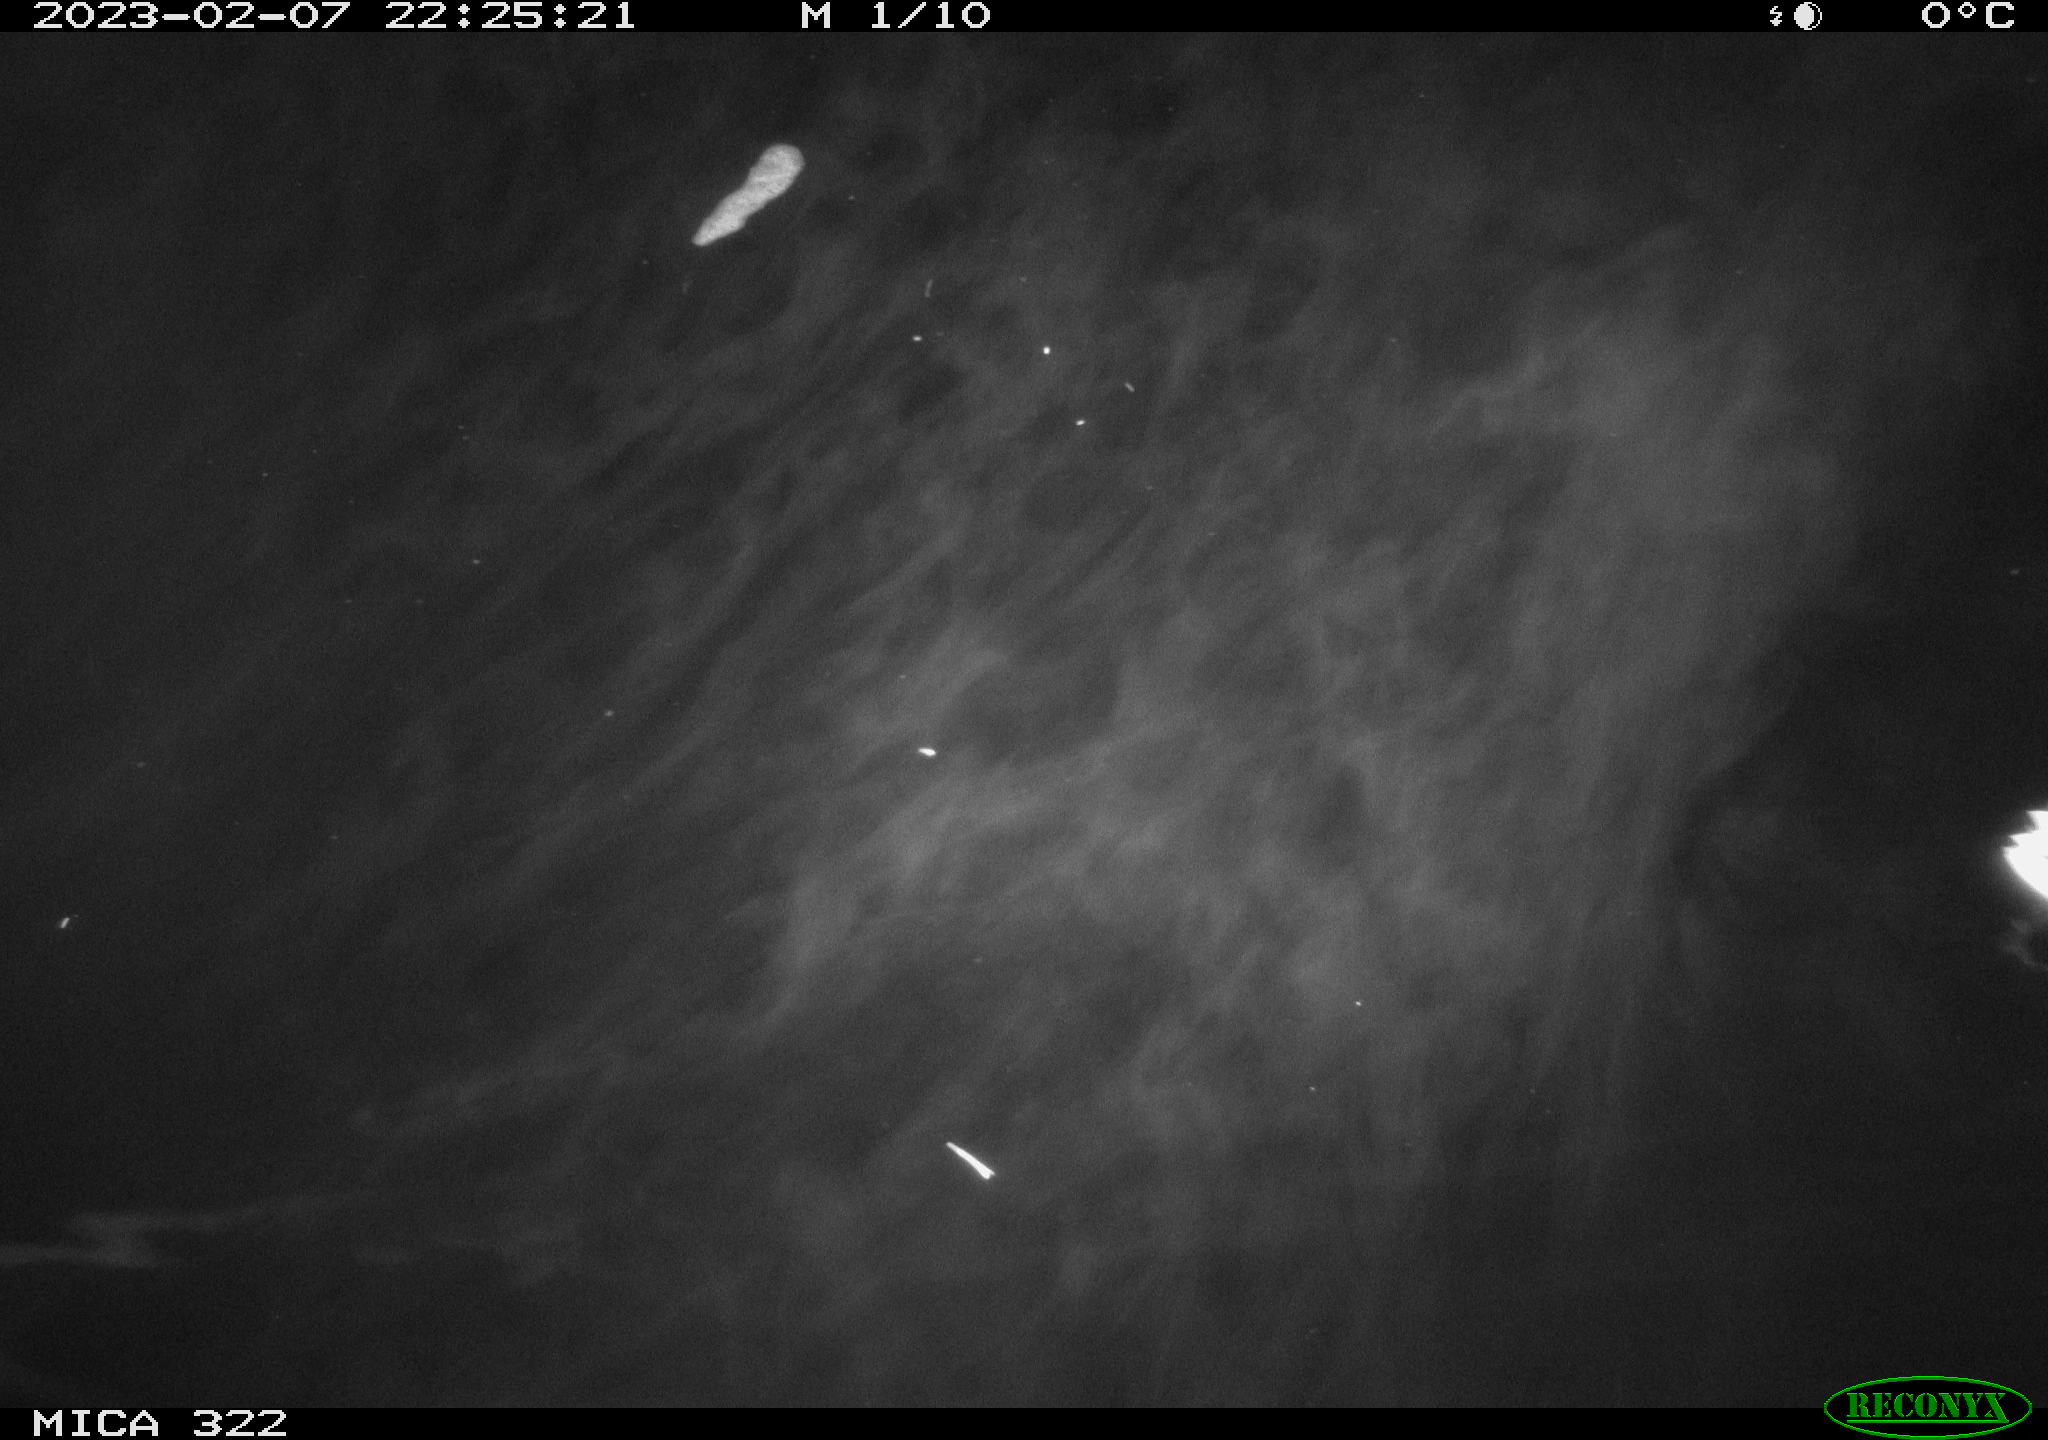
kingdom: Animalia
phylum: Chordata
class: Mammalia
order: Rodentia
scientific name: Rodentia
